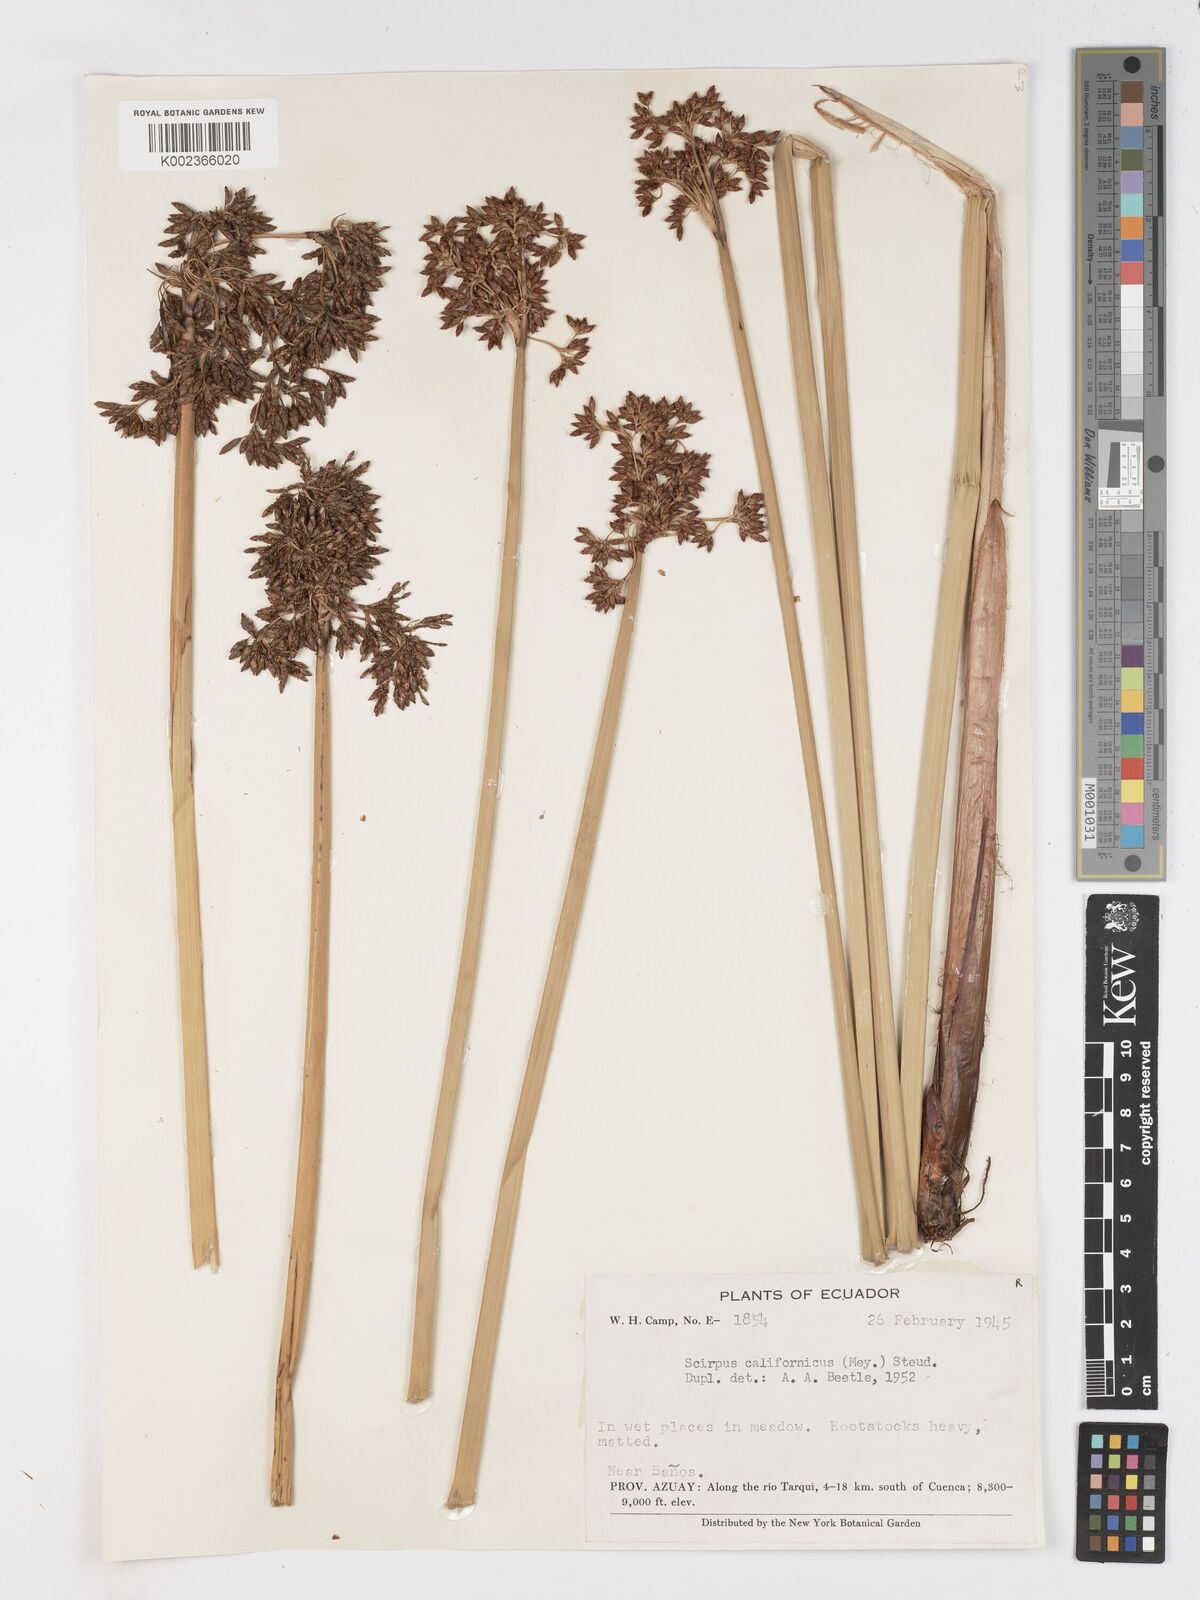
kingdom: Plantae
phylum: Tracheophyta
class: Liliopsida
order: Poales
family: Cyperaceae
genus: Schoenoplectus
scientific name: Schoenoplectus californicus
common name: California bulrush
